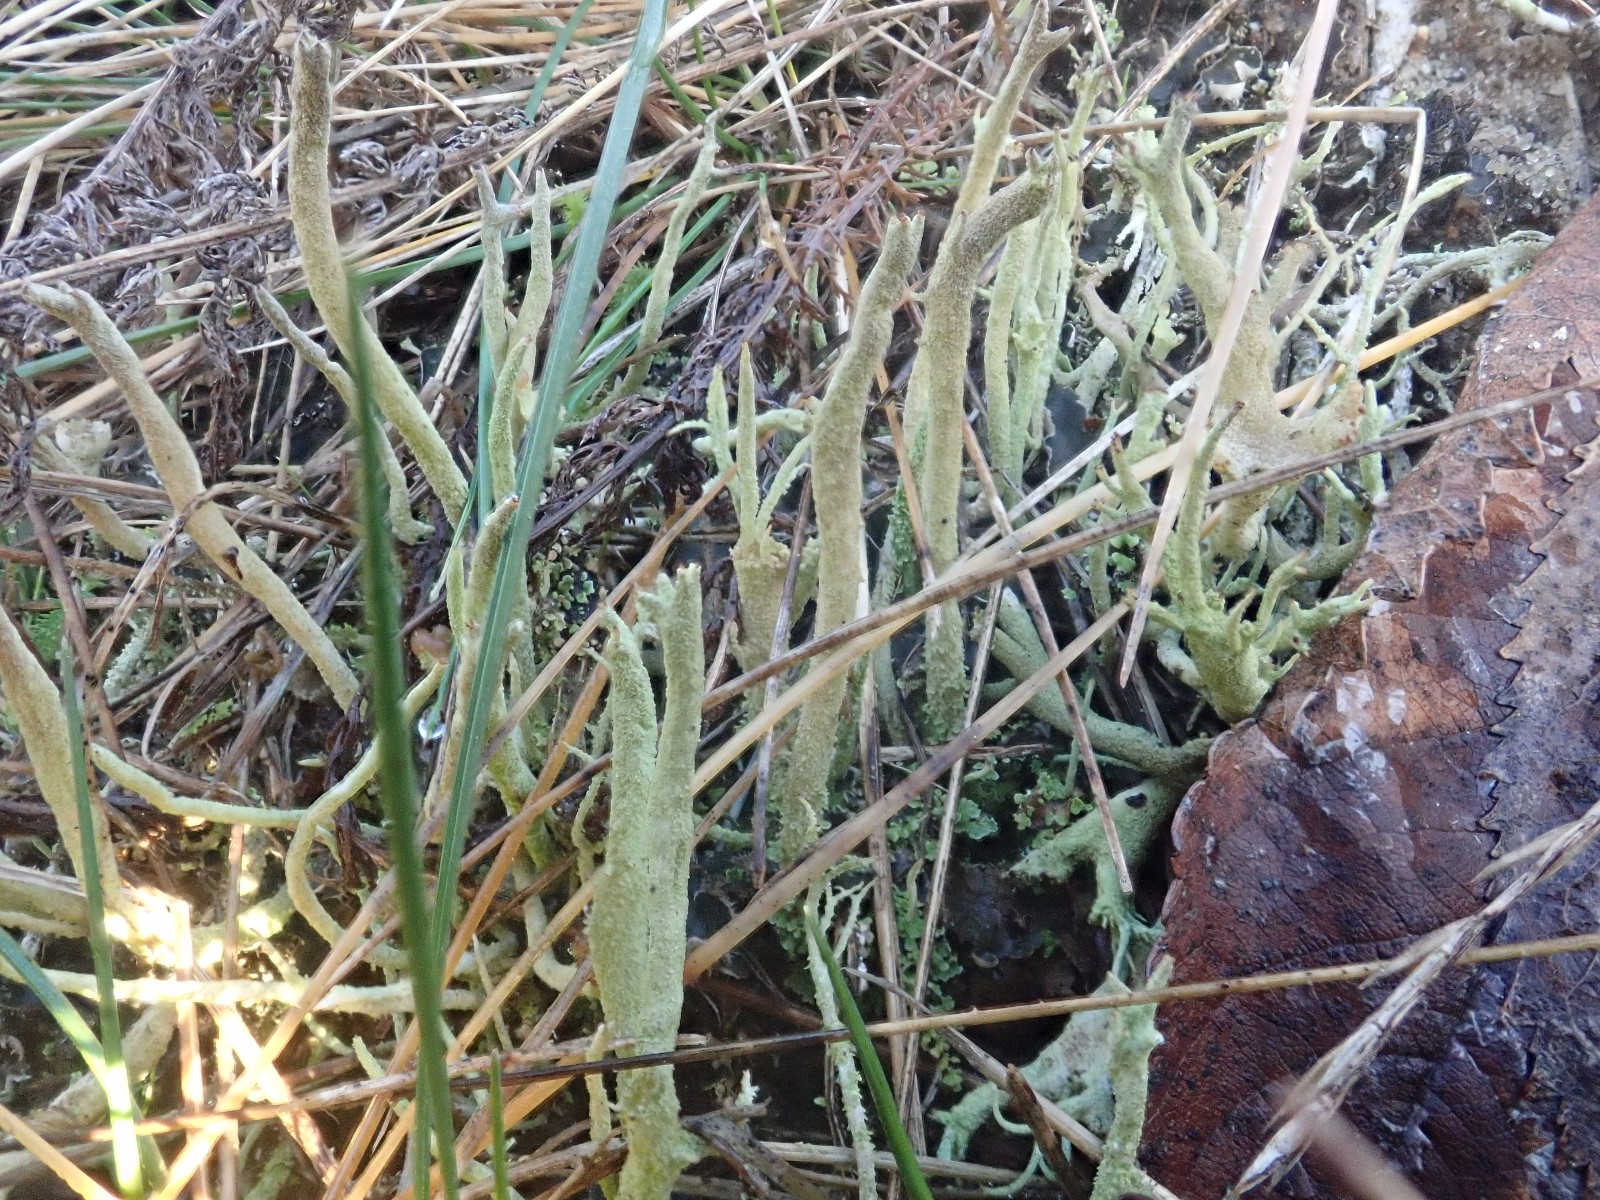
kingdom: Fungi
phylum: Ascomycota
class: Lecanoromycetes
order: Lecanorales
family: Cladoniaceae
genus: Cladonia
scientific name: Cladonia glauca
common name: grågrøn bægerlav
